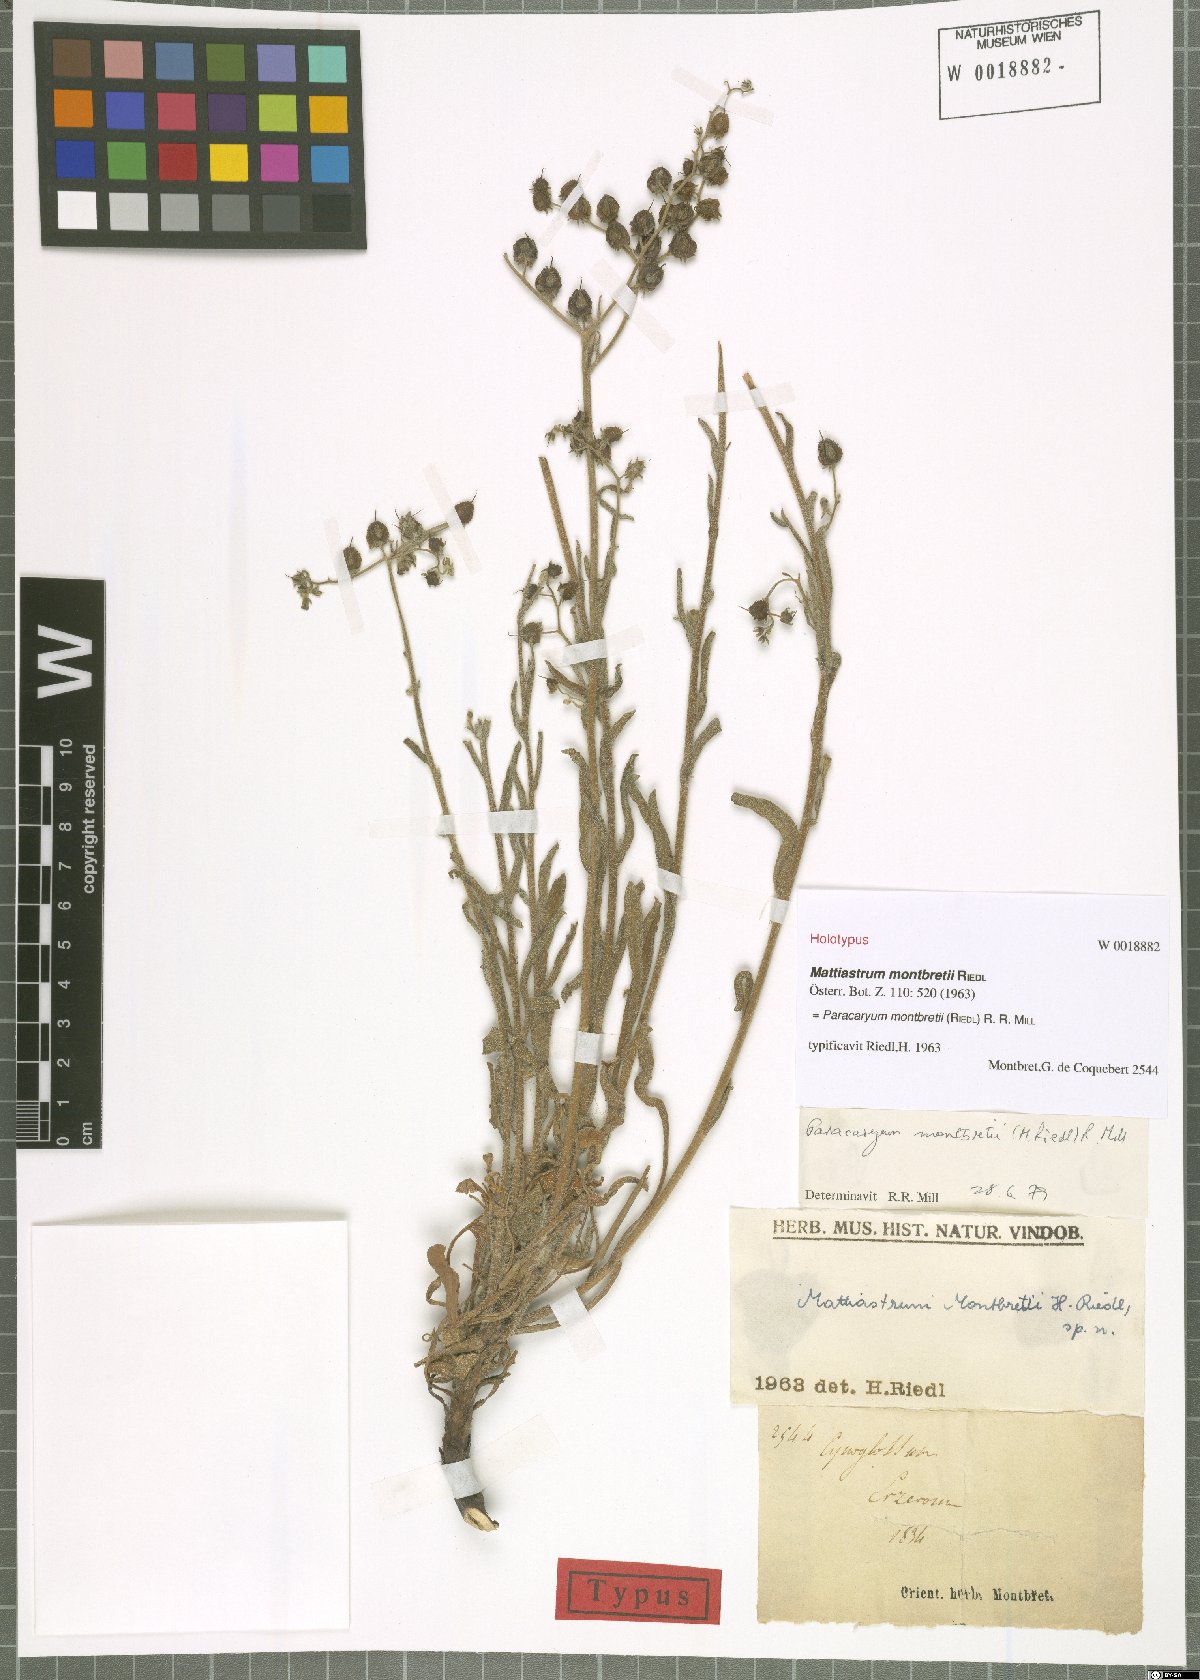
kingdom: Plantae
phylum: Tracheophyta
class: Magnoliopsida
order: Boraginales
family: Boraginaceae
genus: Paracaryum
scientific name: Paracaryum montbretii
